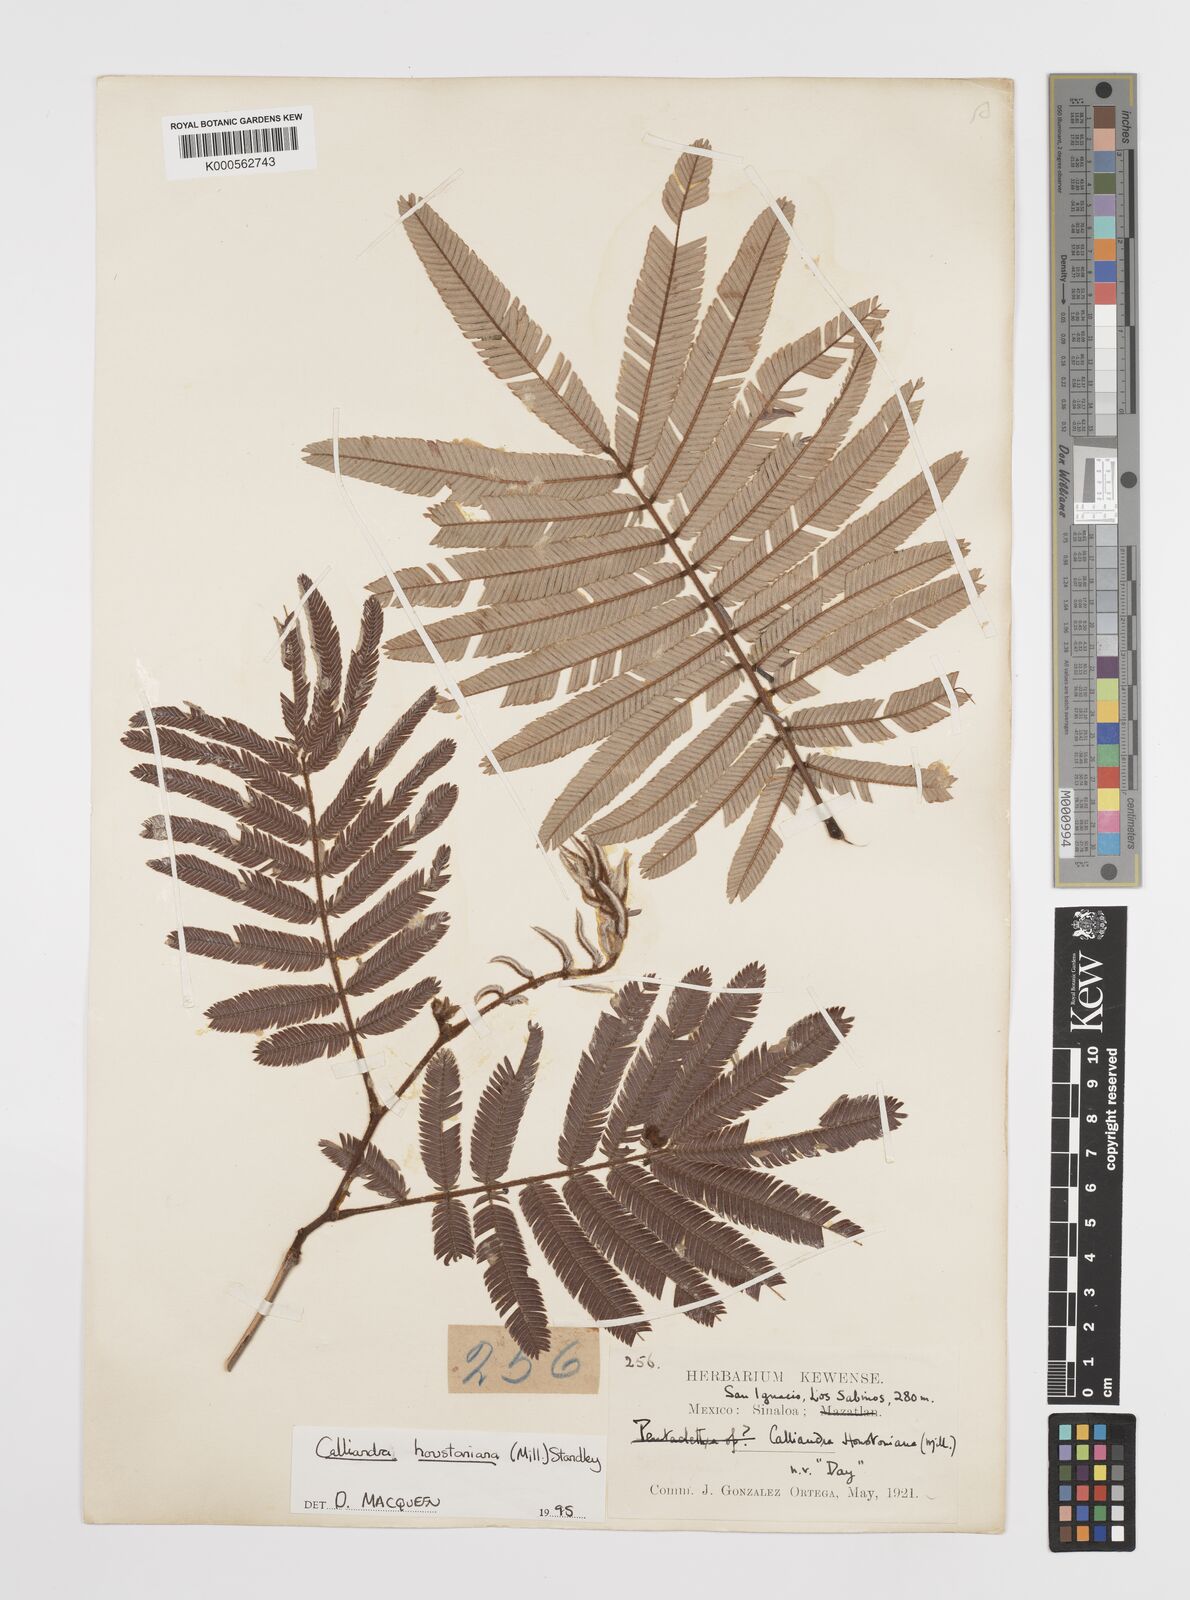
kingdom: Plantae
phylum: Tracheophyta
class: Magnoliopsida
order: Fabales
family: Fabaceae
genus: Calliandra
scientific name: Calliandra houstoniana
